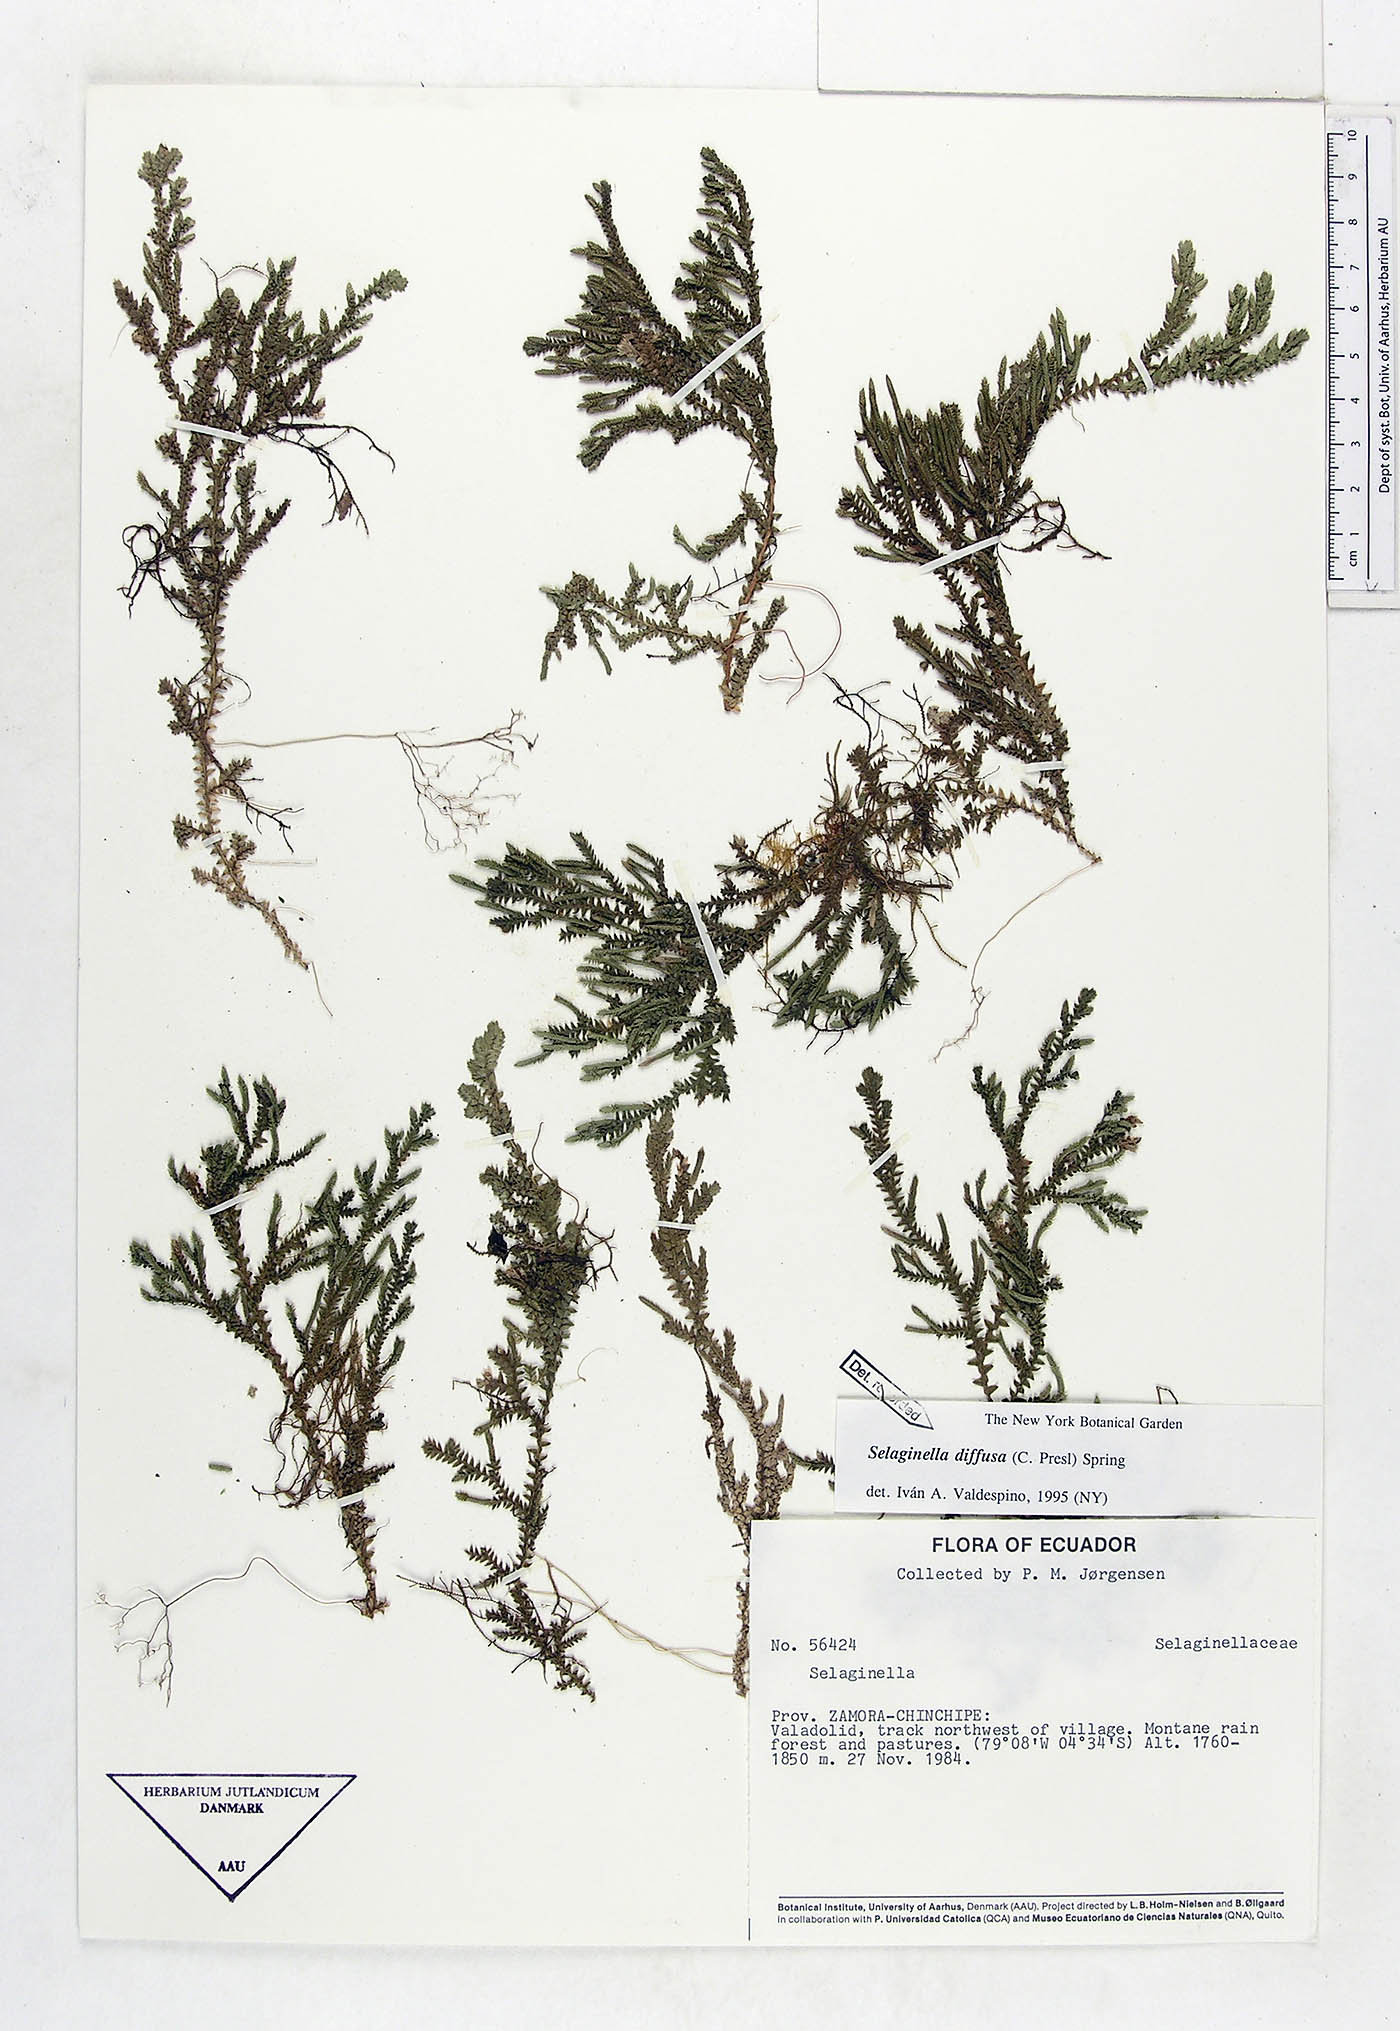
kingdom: Plantae
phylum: Tracheophyta
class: Lycopodiopsida
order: Selaginellales
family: Selaginellaceae
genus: Selaginella
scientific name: Selaginella diffusa
